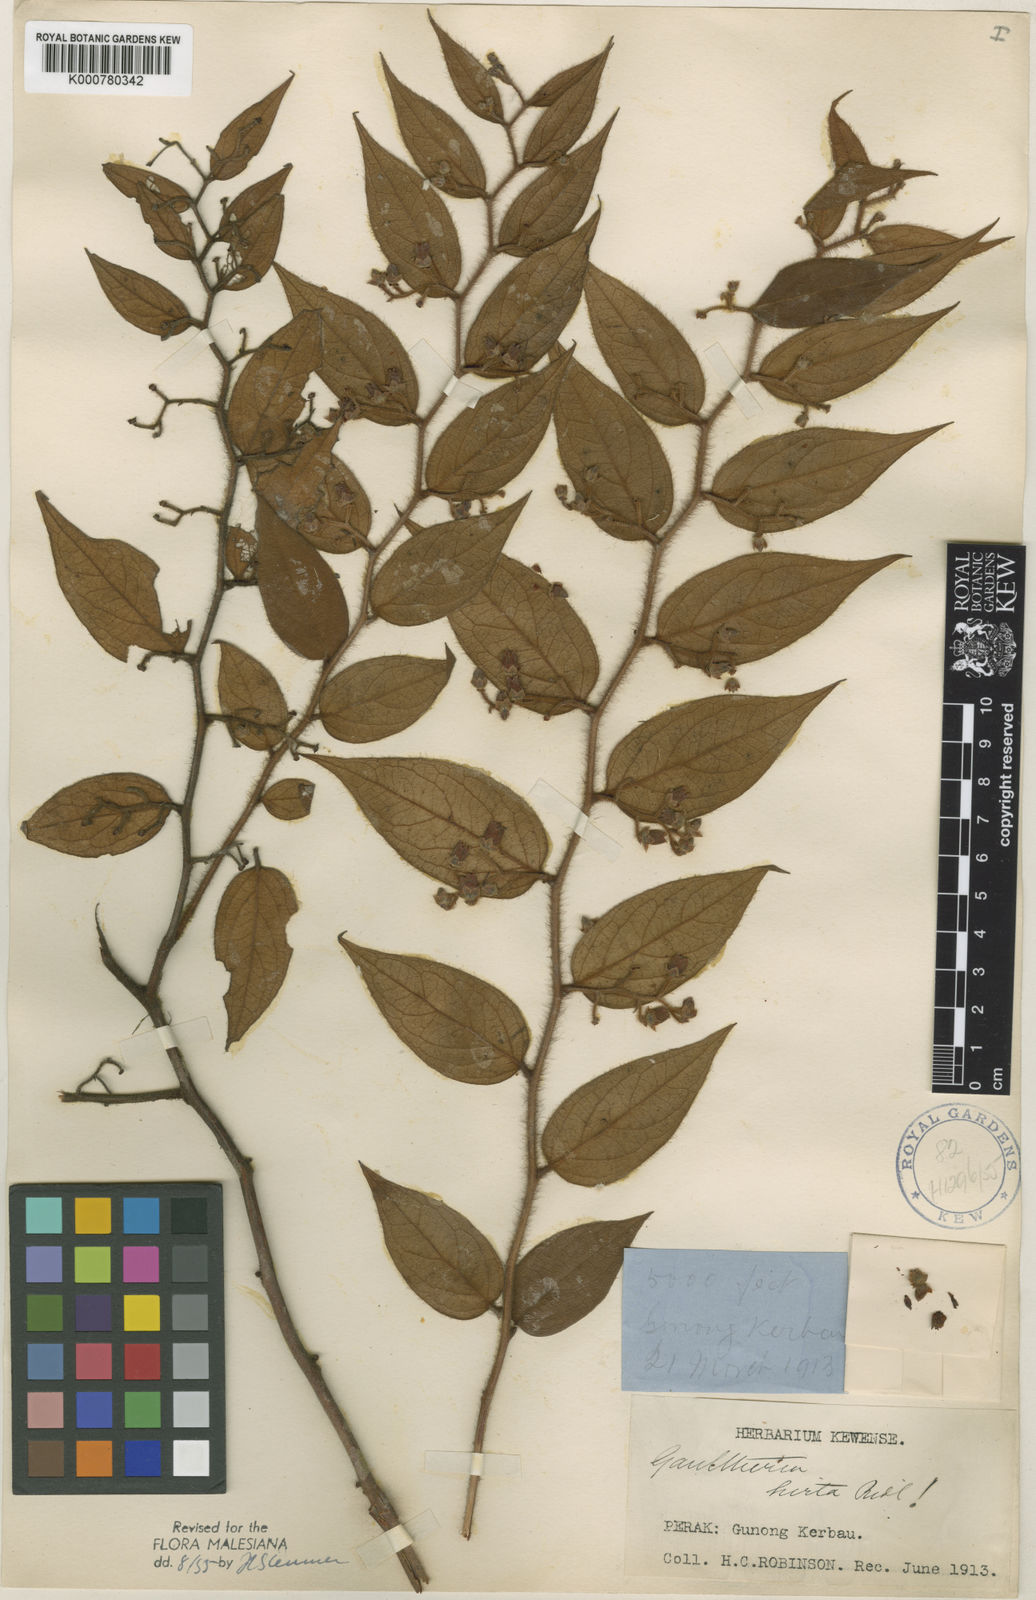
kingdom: Plantae
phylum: Tracheophyta
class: Magnoliopsida
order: Ericales
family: Ericaceae
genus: Gaultheria
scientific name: Gaultheria hirta
